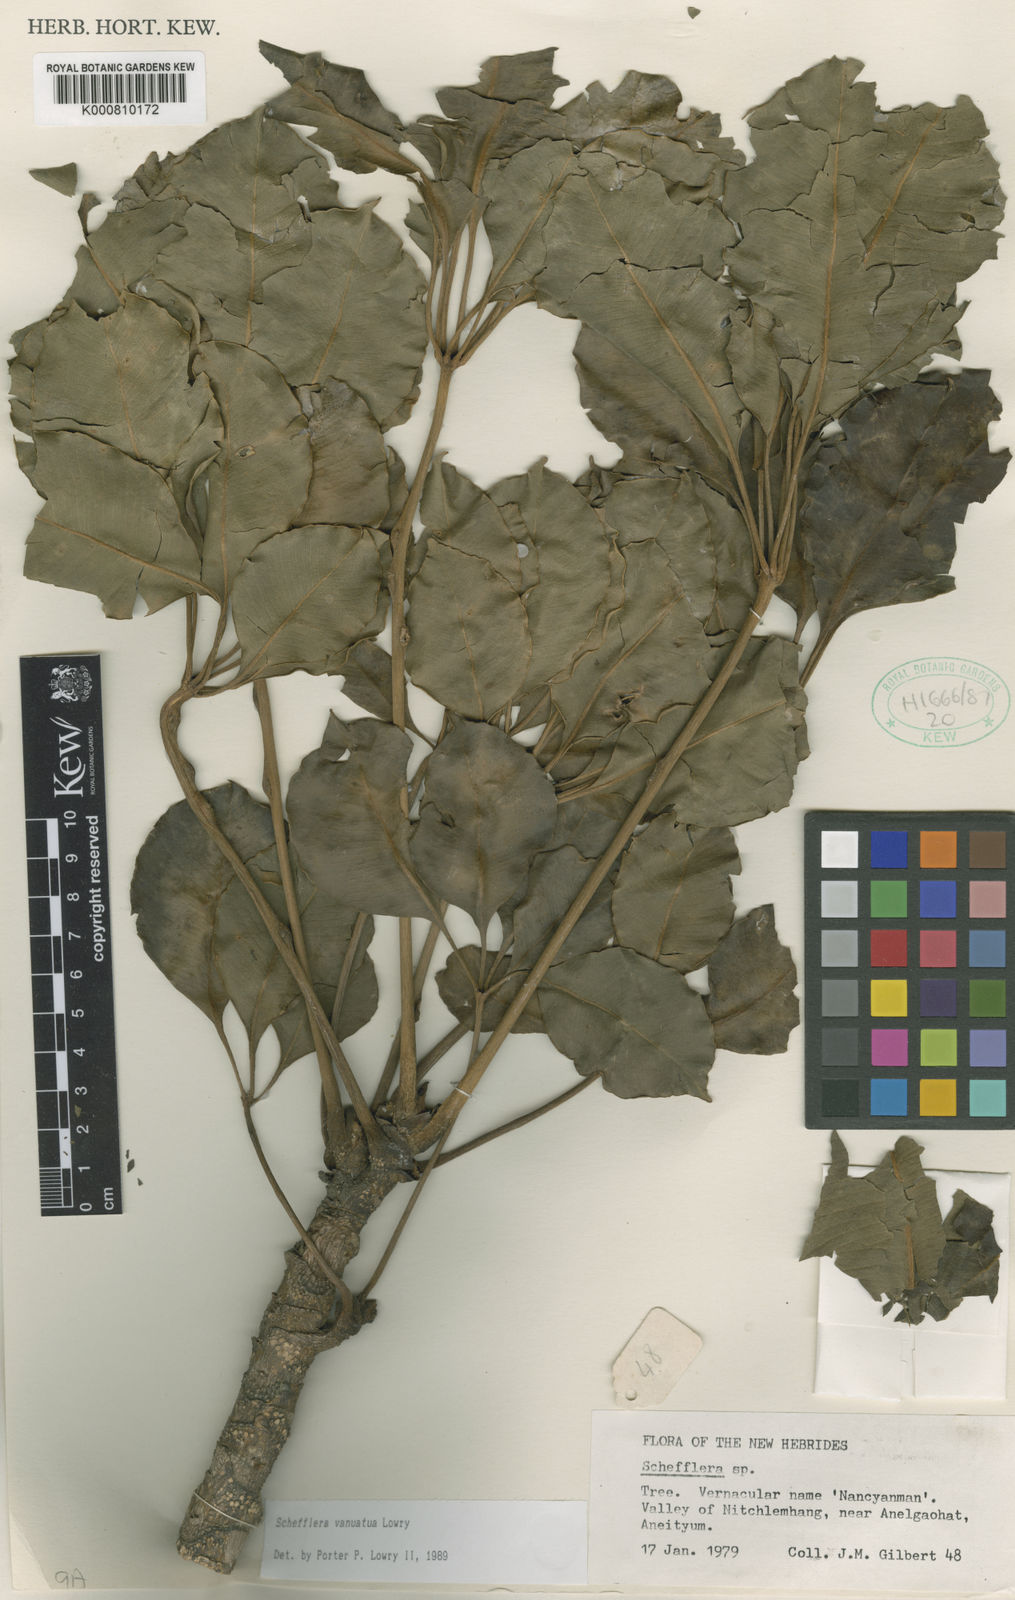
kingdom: Plantae
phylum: Tracheophyta
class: Magnoliopsida
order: Apiales
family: Araliaceae
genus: Plerandra
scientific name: Plerandra vanuatua
